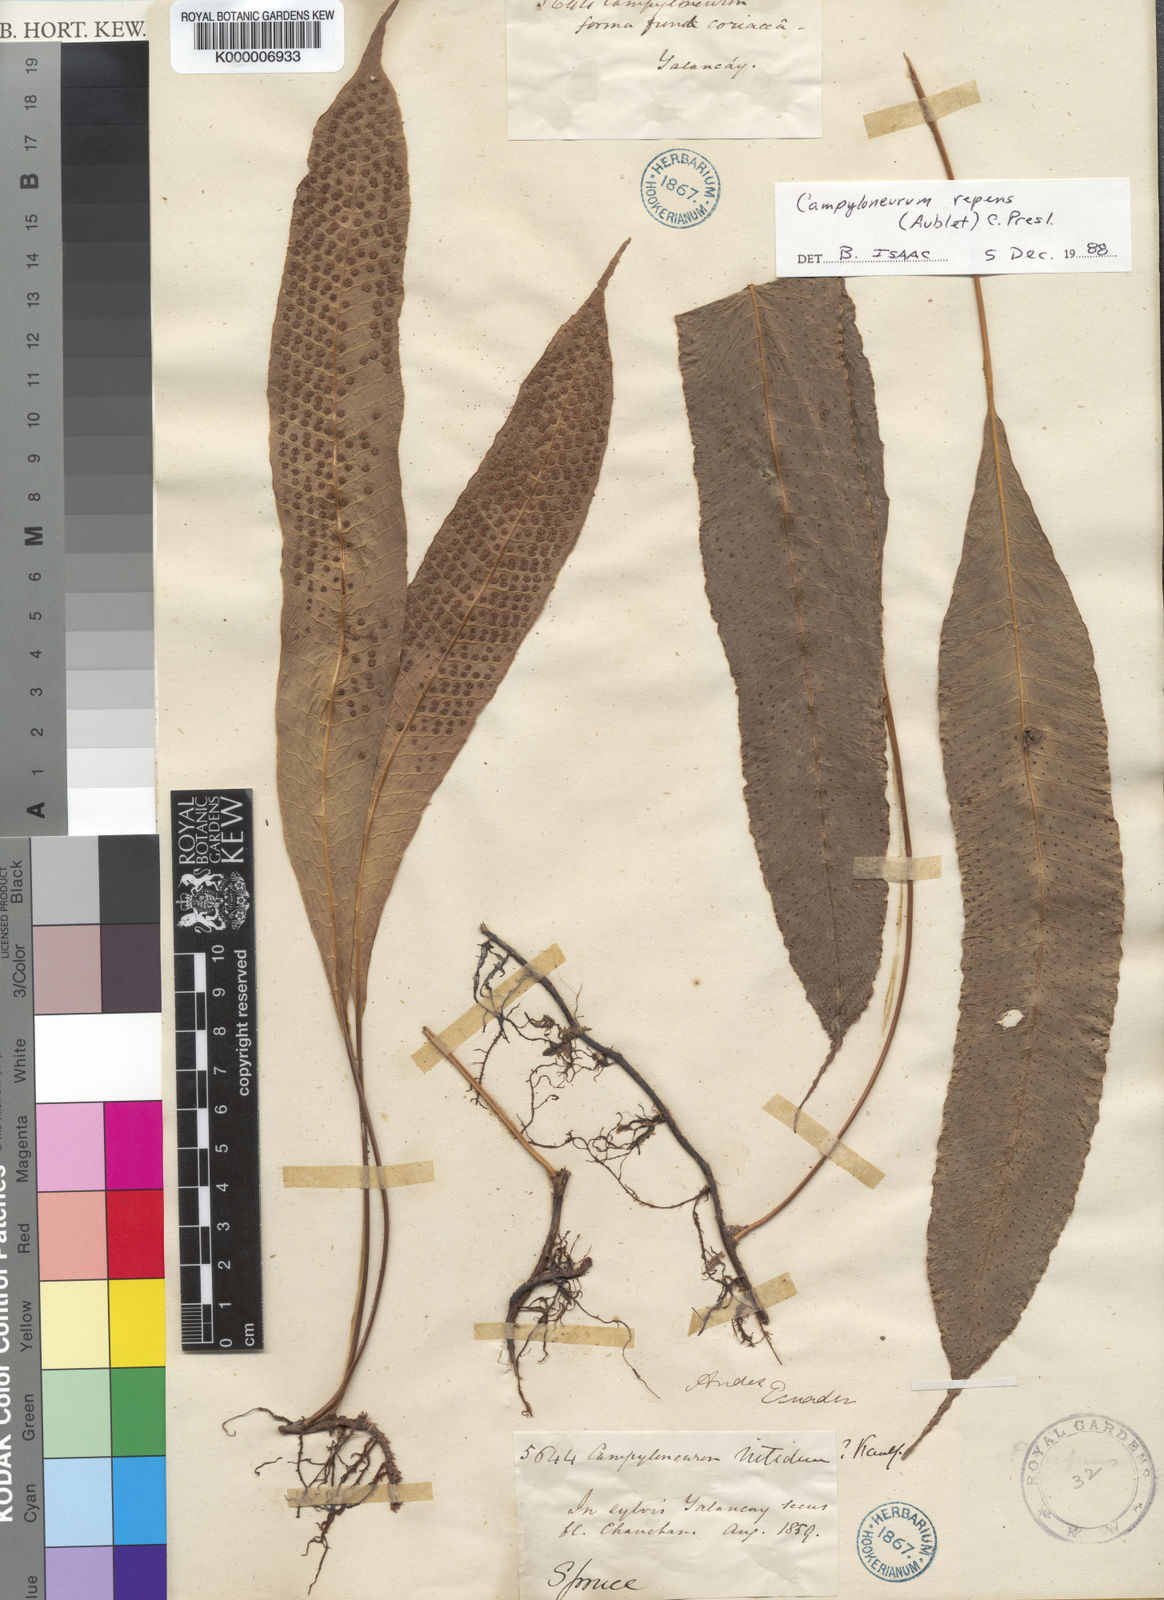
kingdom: Plantae
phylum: Tracheophyta
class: Polypodiopsida
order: Polypodiales
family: Polypodiaceae
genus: Campyloneurum
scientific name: Campyloneurum repens
